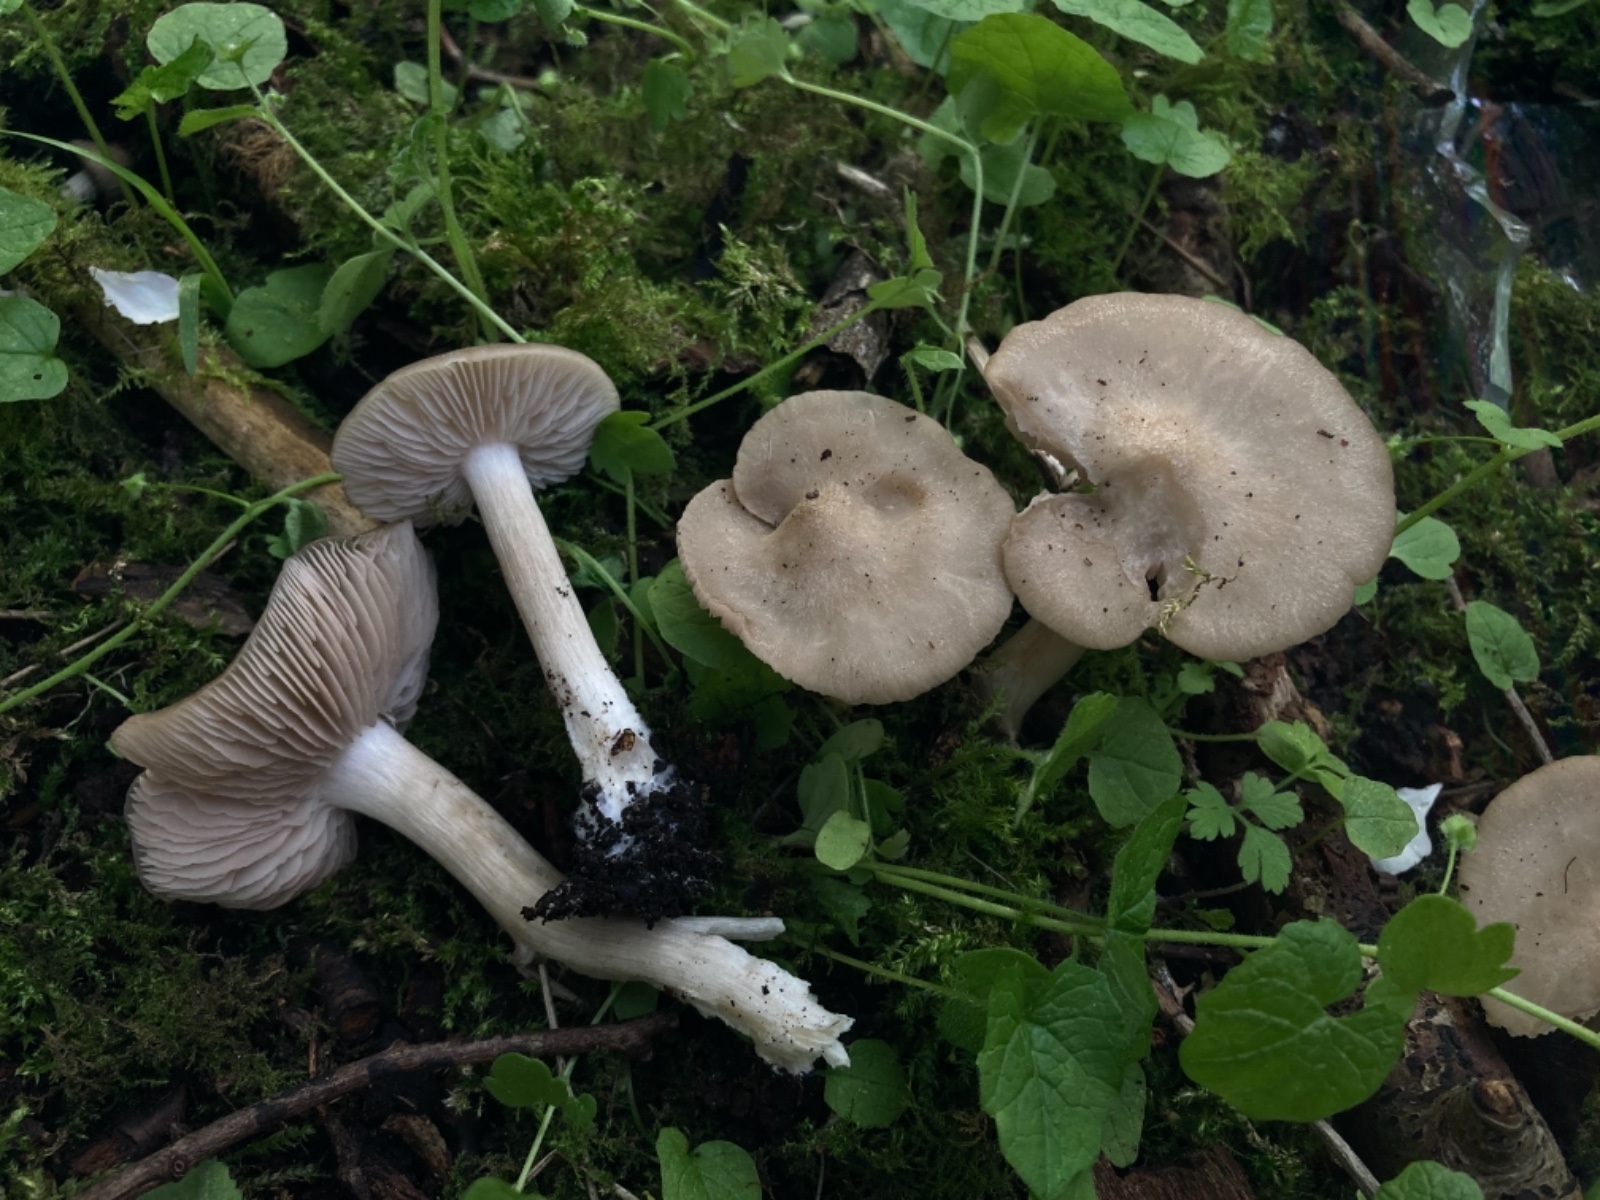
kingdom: Fungi
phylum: Basidiomycota
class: Agaricomycetes
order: Agaricales
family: Entolomataceae
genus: Entoloma
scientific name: Entoloma clypeatum
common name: flammet rødblad
